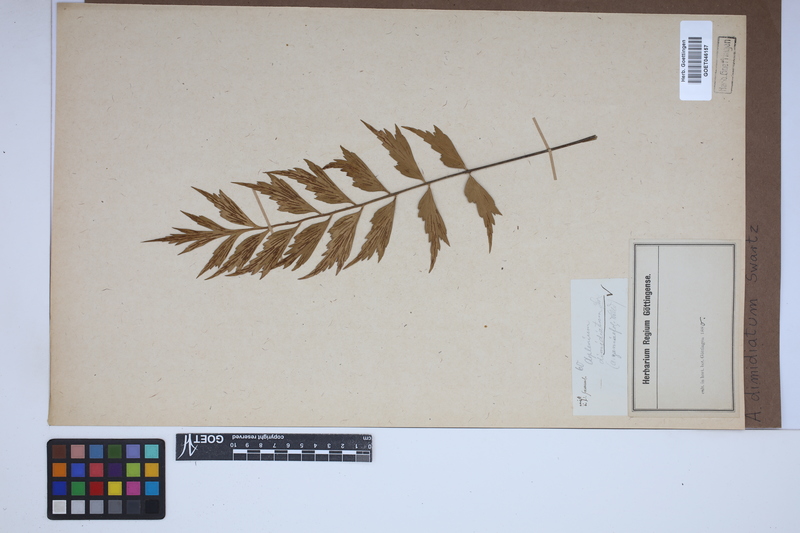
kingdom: Plantae
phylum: Tracheophyta
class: Polypodiopsida
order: Polypodiales
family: Aspleniaceae
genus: Asplenium
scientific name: Asplenium dimidiatum
